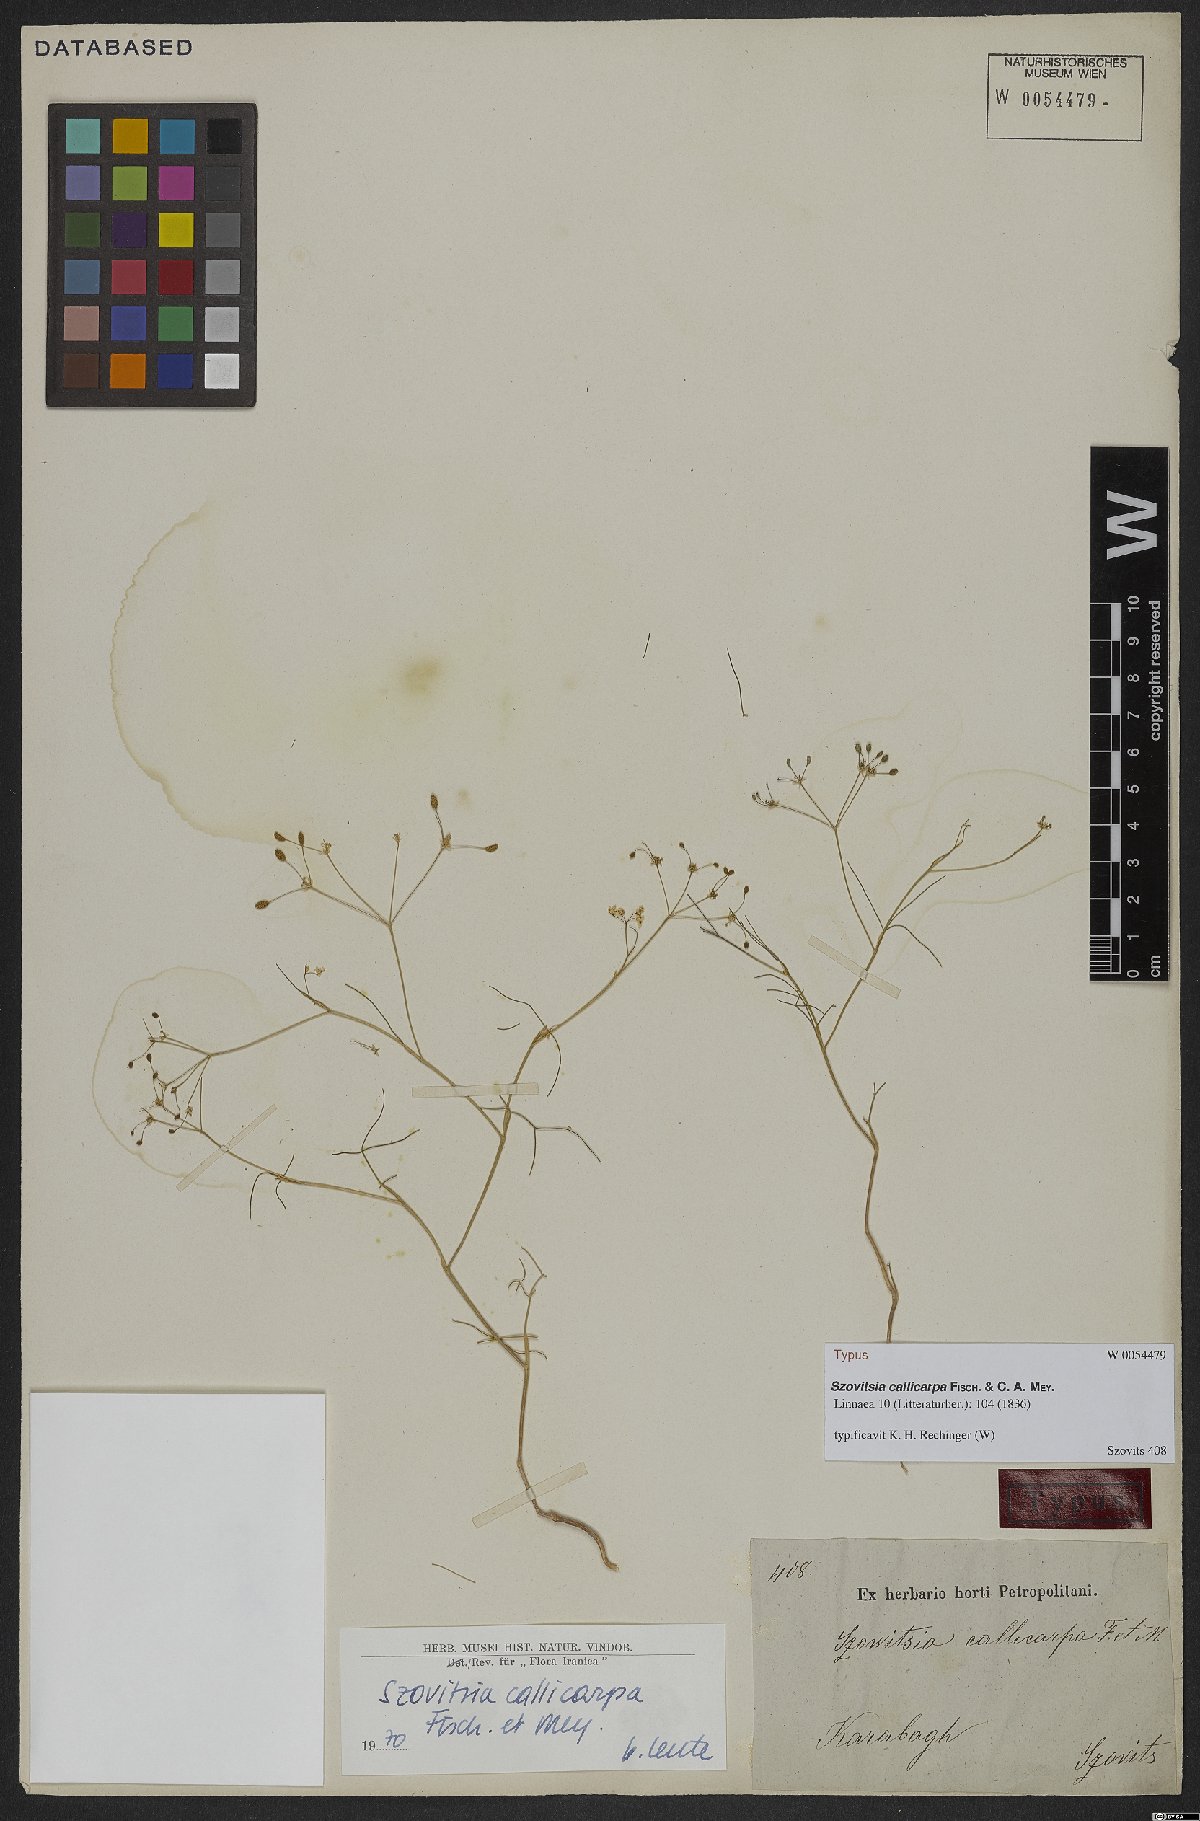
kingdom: Plantae
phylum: Tracheophyta
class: Magnoliopsida
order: Apiales
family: Apiaceae
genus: Szovitsia
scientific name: Szovitsia callicarpa
